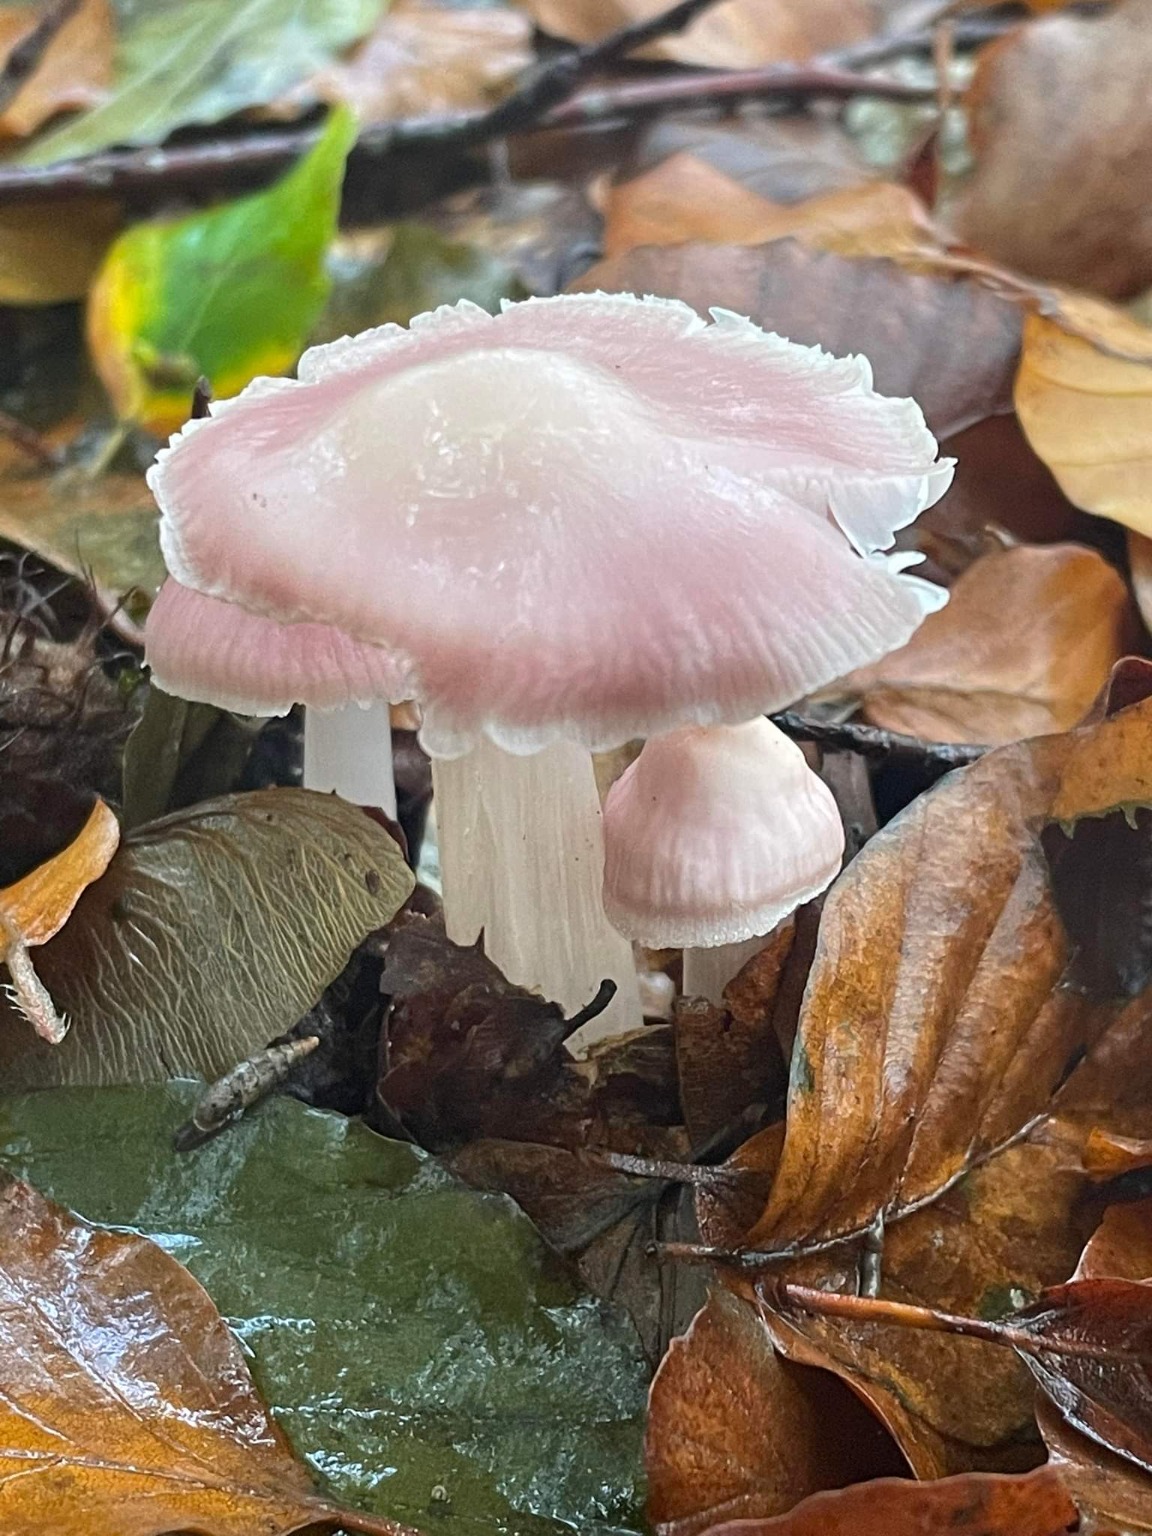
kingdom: Fungi
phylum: Basidiomycota
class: Agaricomycetes
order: Agaricales
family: Mycenaceae
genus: Mycena
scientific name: Mycena rosea
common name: Rosa huesvamp
